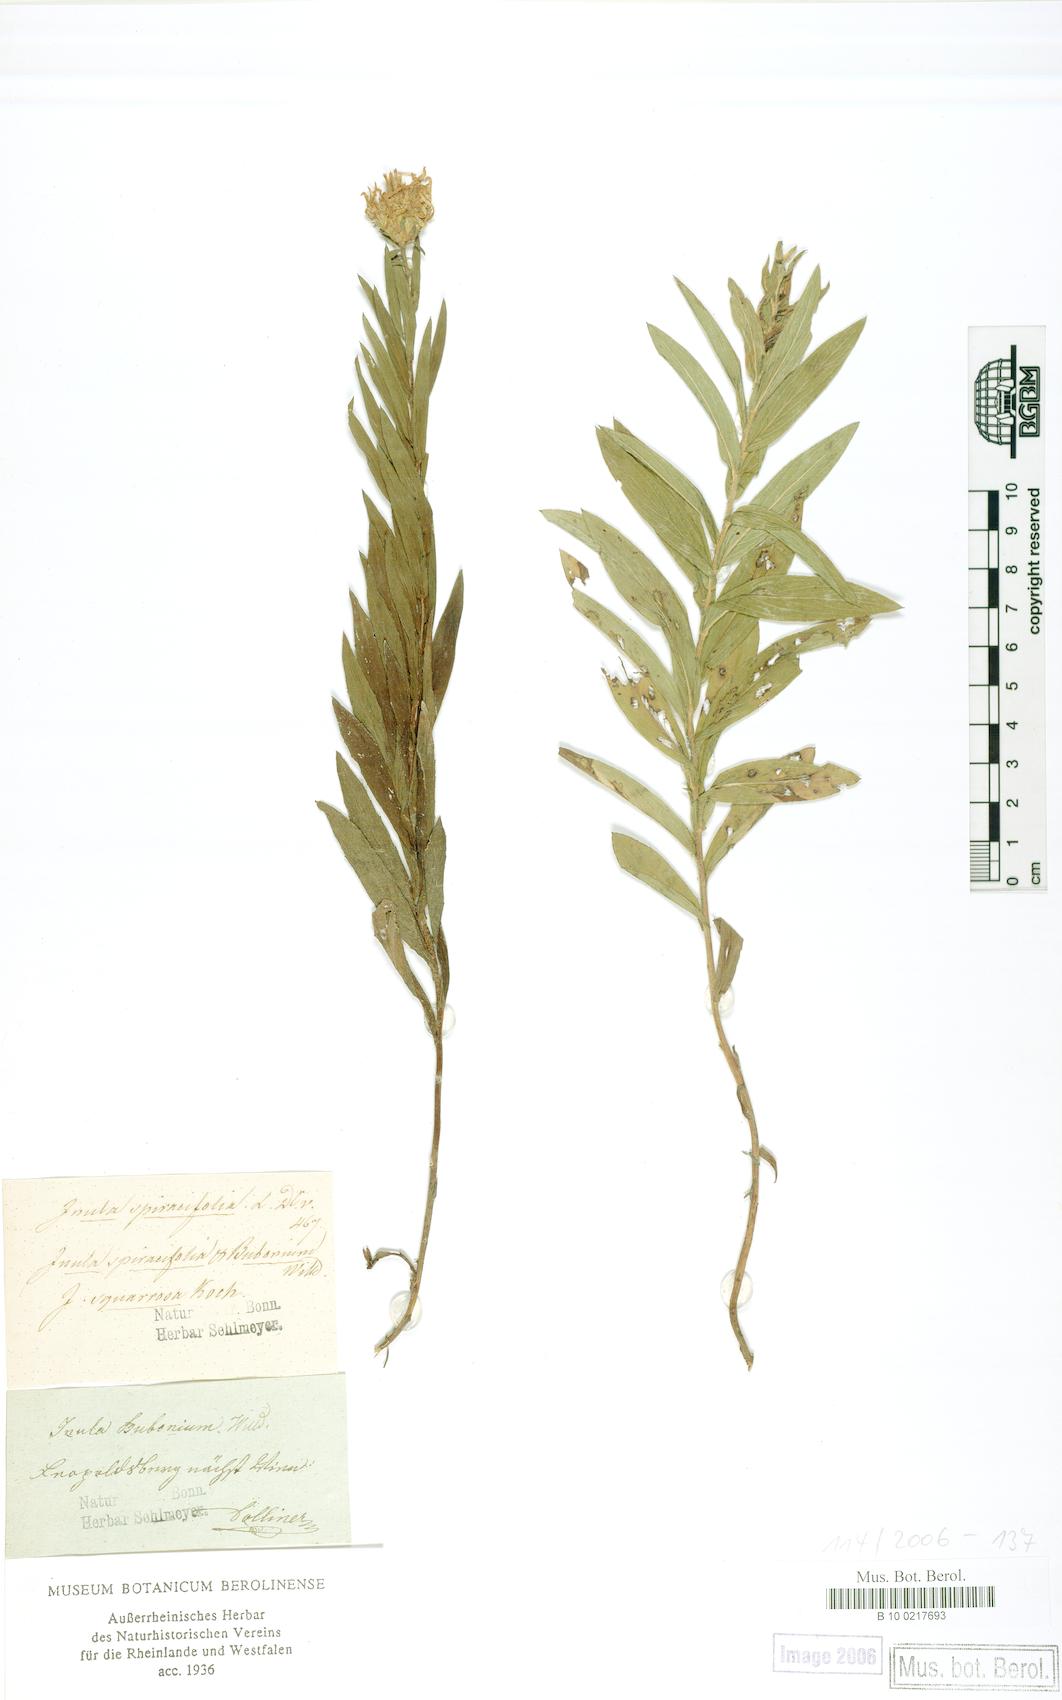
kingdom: Plantae
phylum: Tracheophyta
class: Magnoliopsida
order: Asterales
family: Asteraceae
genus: Pentanema
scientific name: Pentanema spiraeifolium
